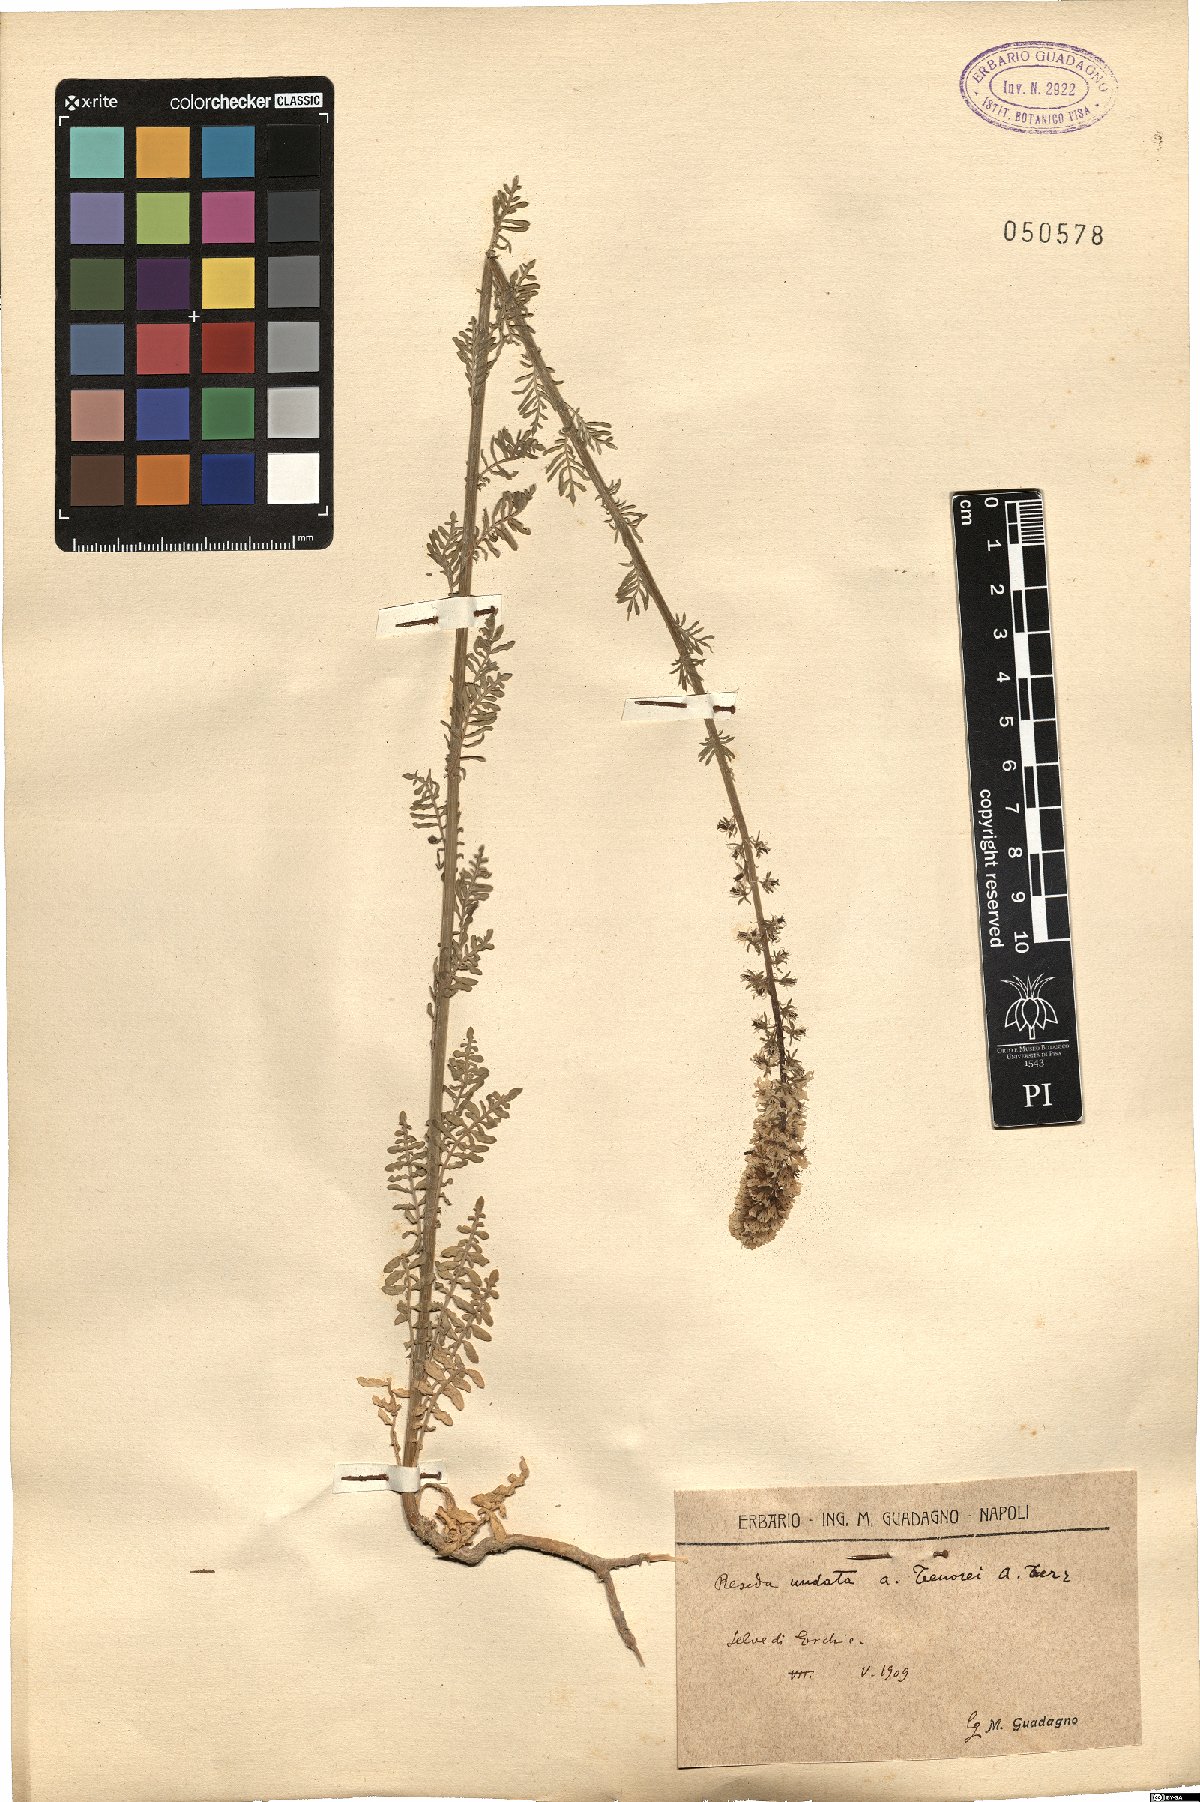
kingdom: Plantae
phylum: Tracheophyta
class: Magnoliopsida
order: Brassicales
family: Resedaceae
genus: Reseda
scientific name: Reseda undata
